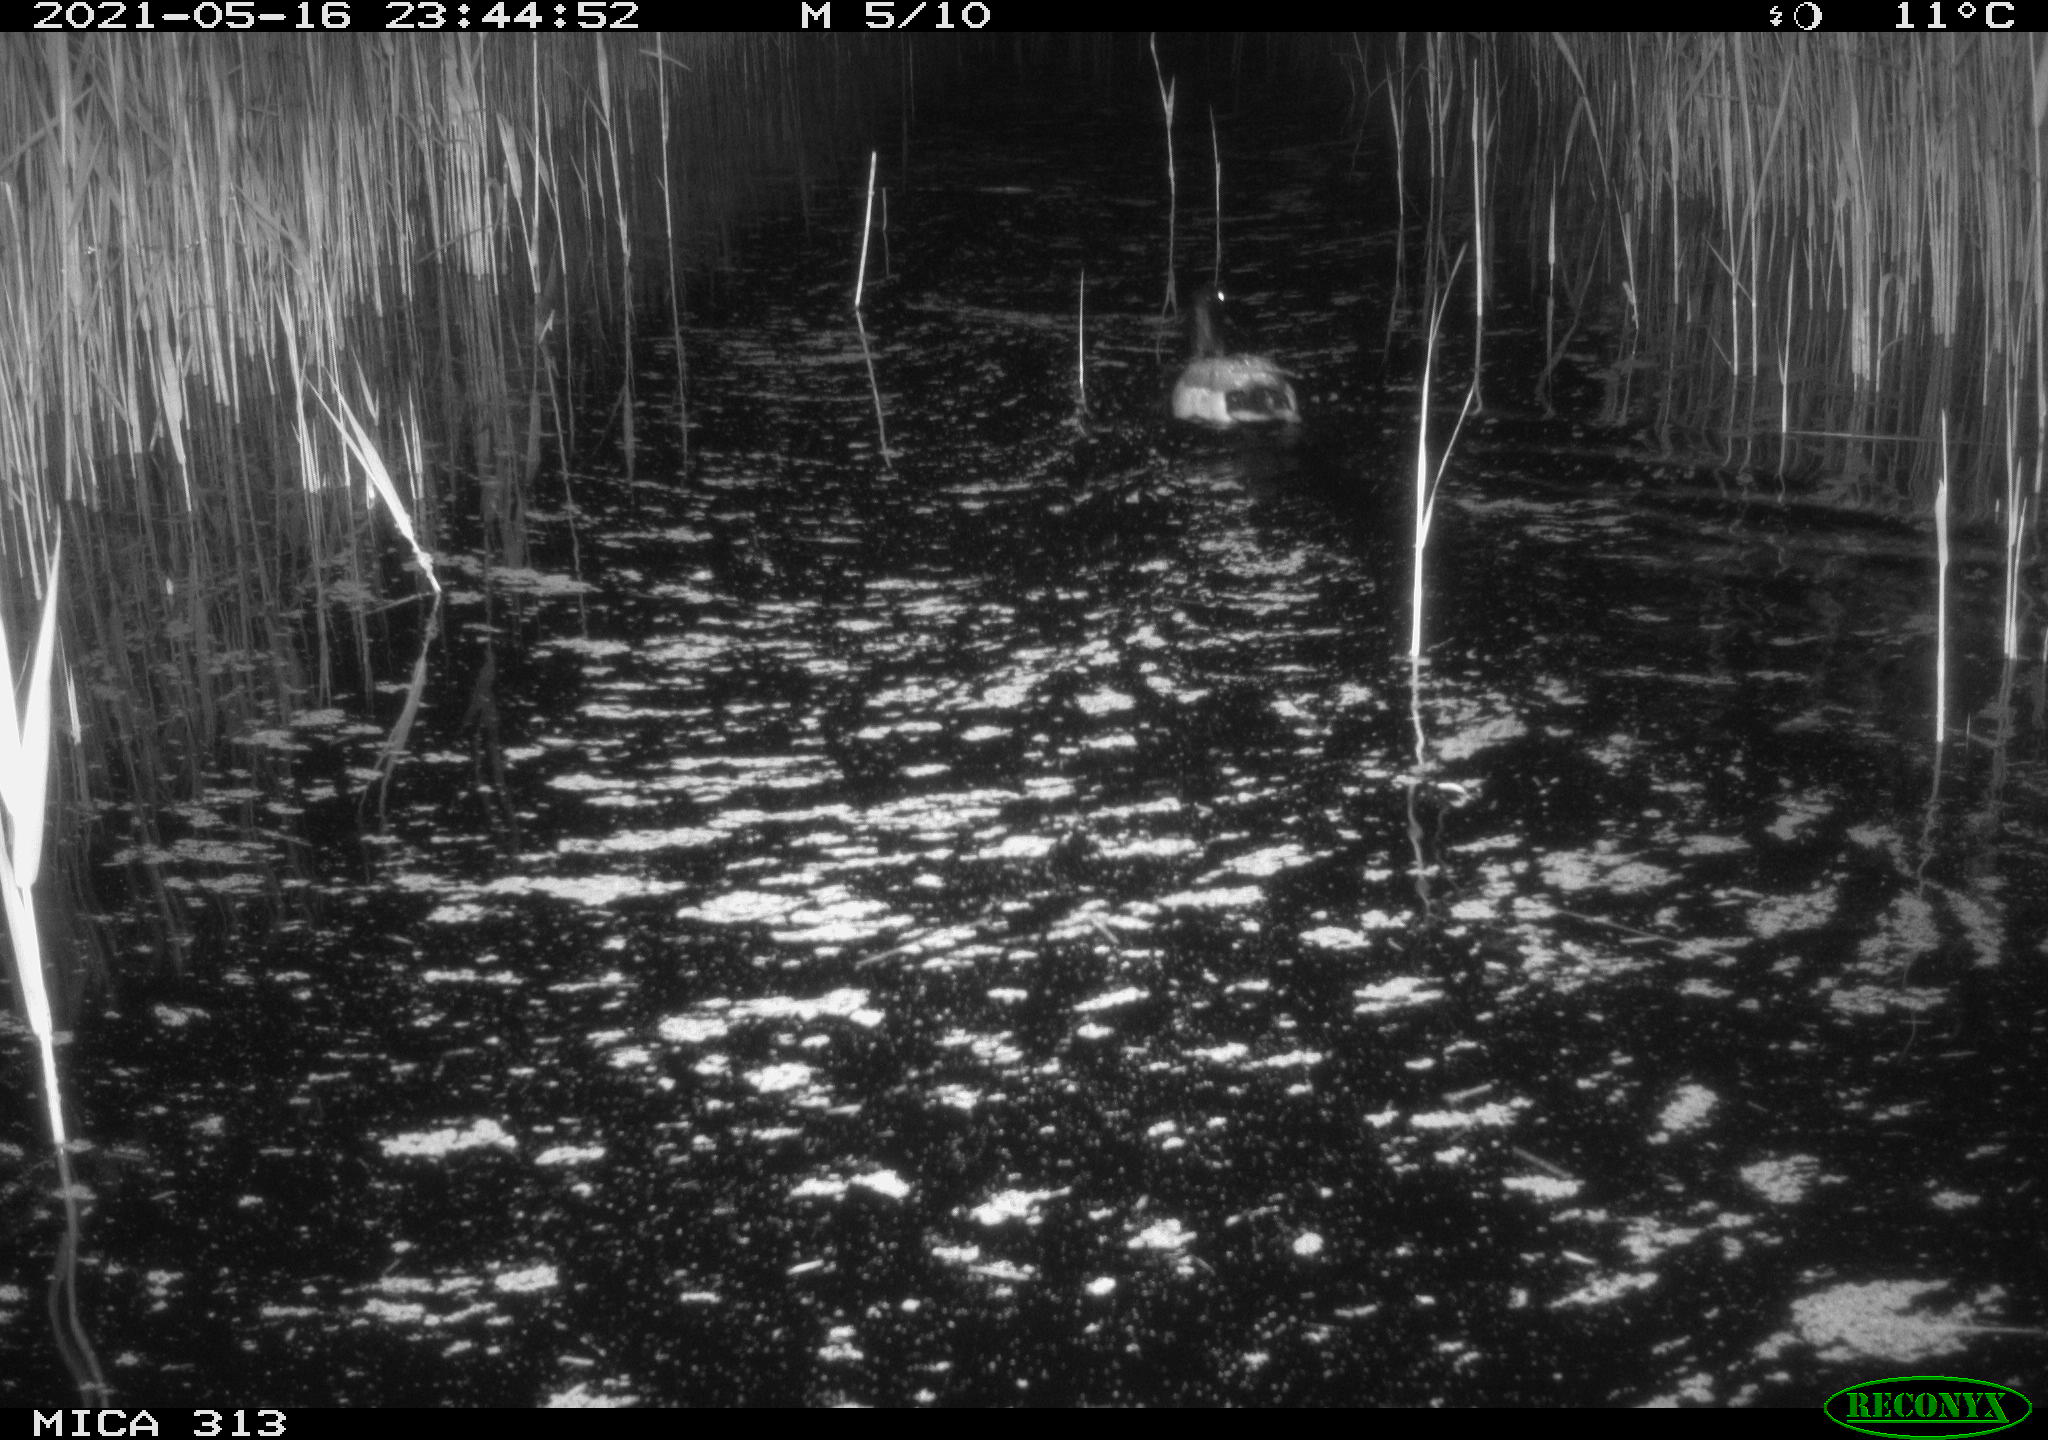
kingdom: Animalia
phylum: Chordata
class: Aves
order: Anseriformes
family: Anatidae
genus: Anas
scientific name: Anas platyrhynchos
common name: Mallard
